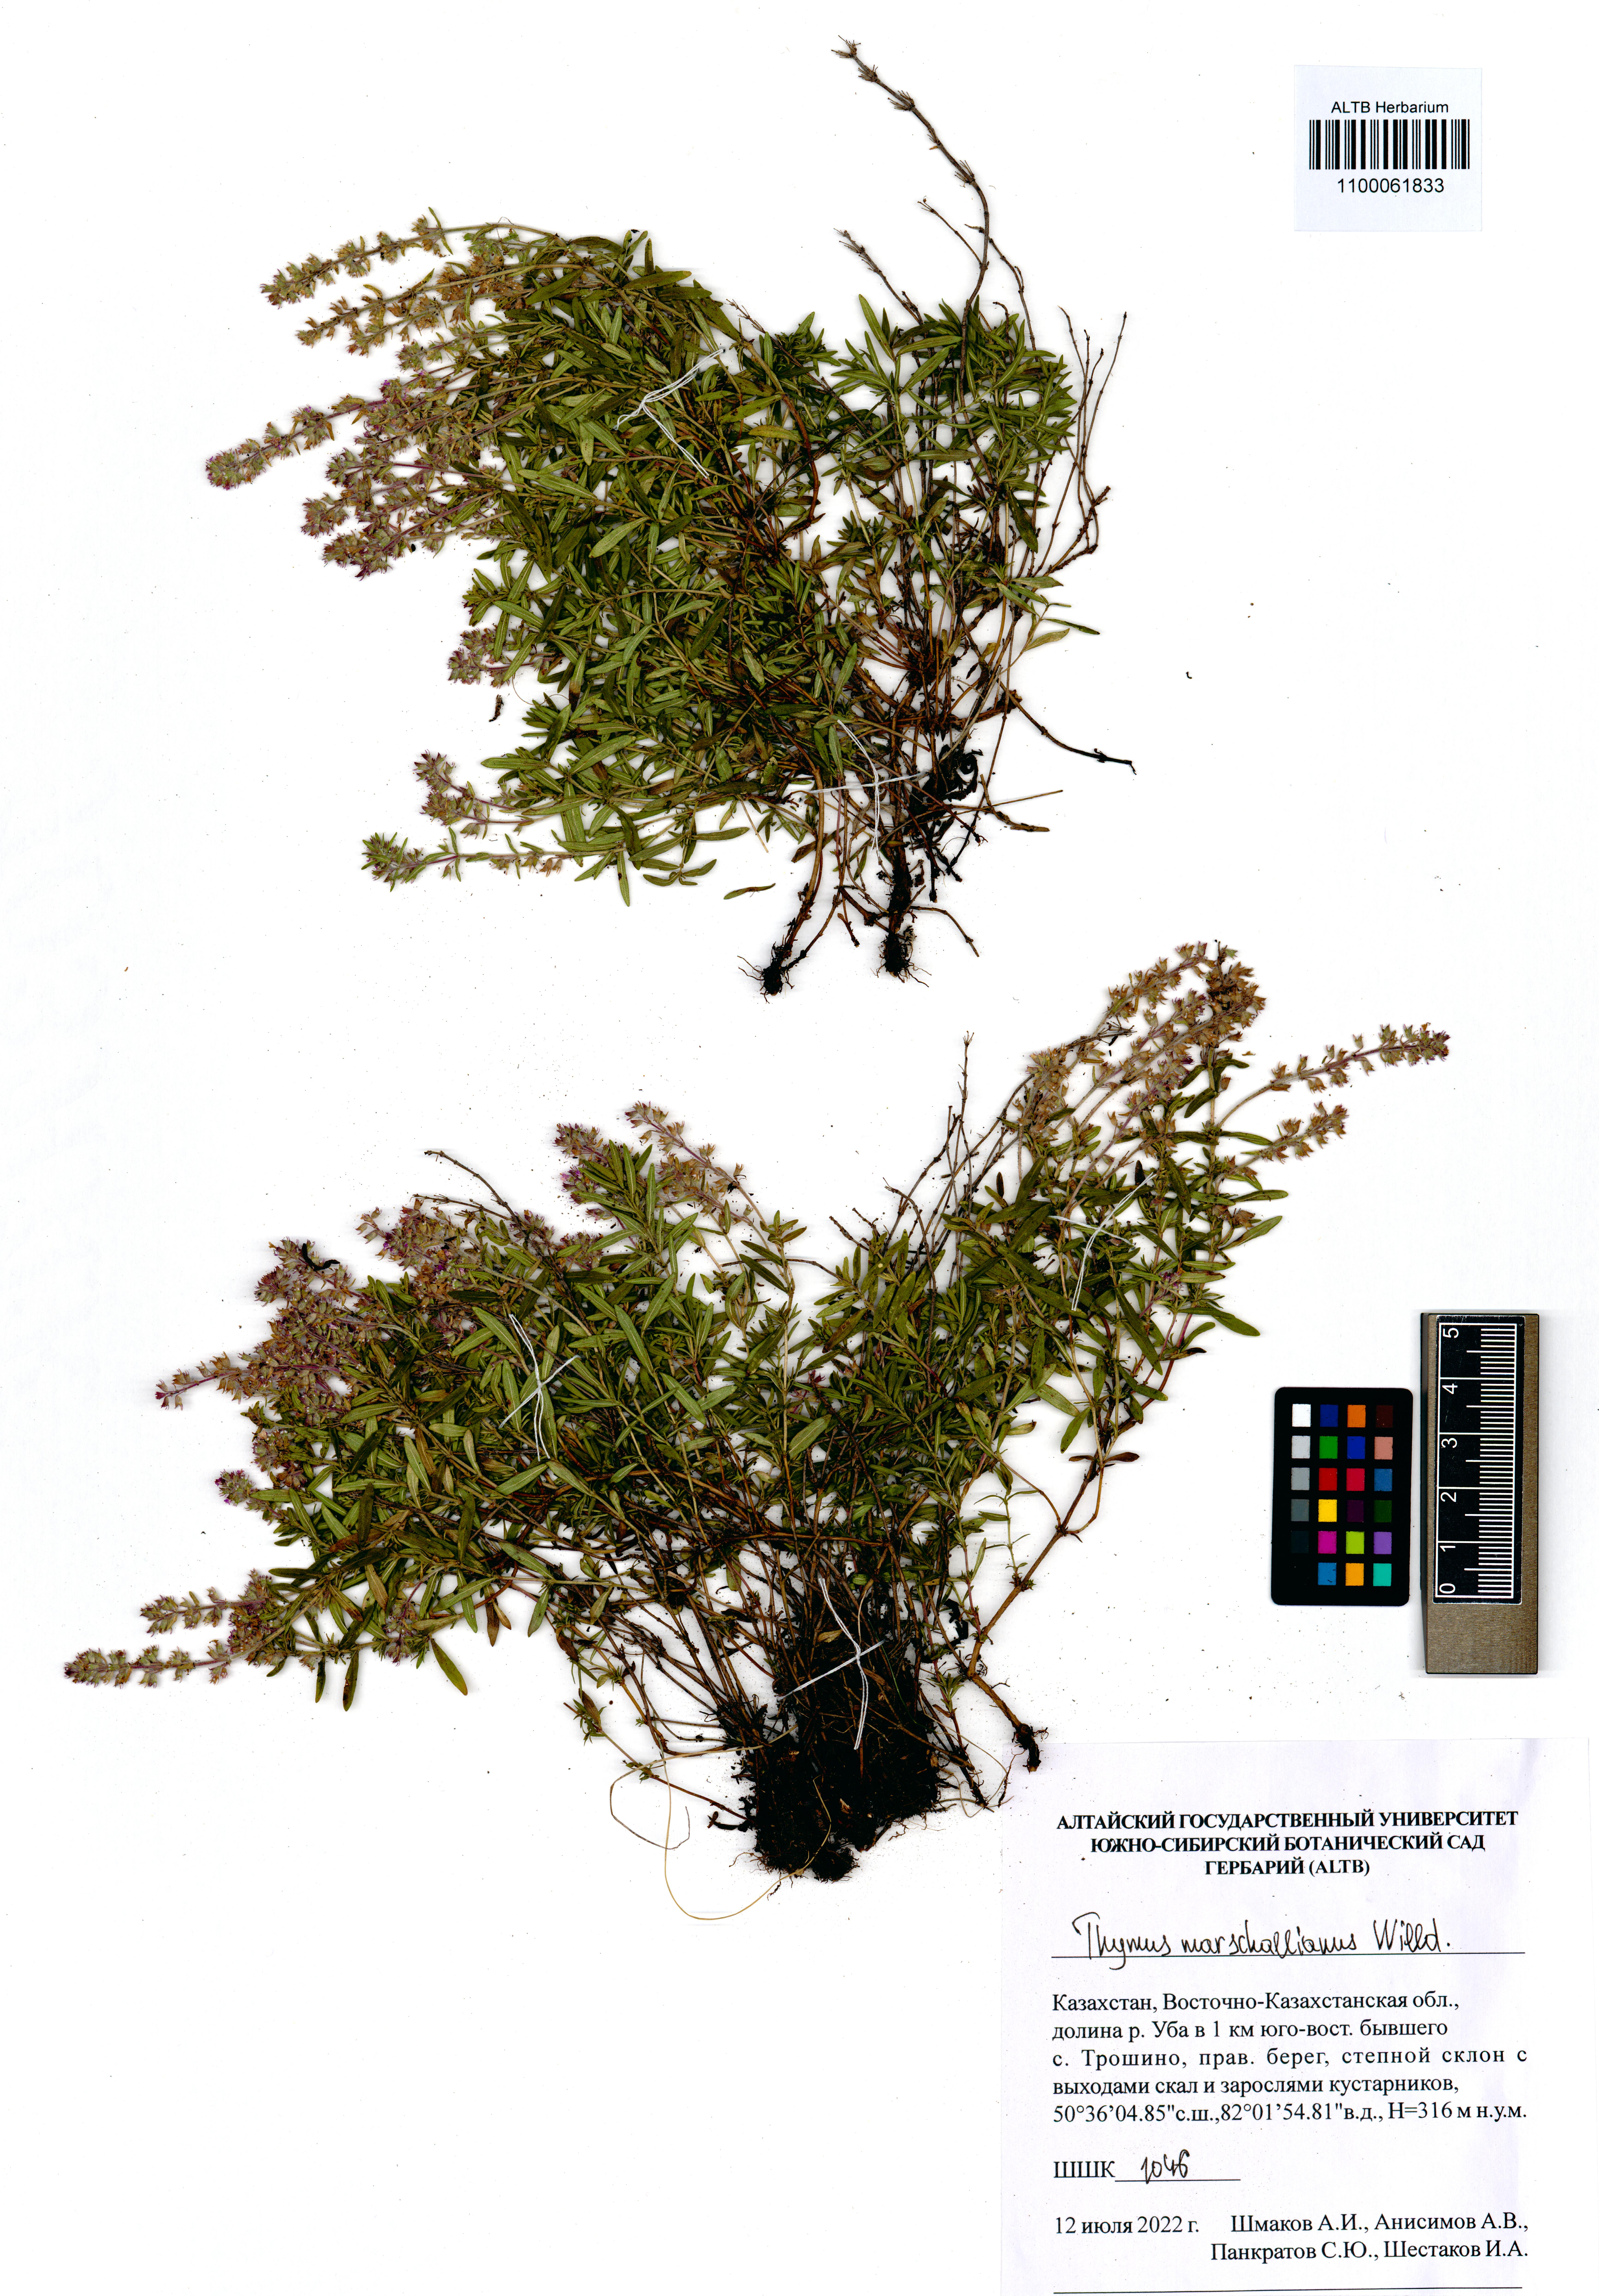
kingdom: Plantae
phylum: Tracheophyta
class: Magnoliopsida
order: Lamiales
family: Lamiaceae
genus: Thymus
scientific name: Thymus pannonicus
